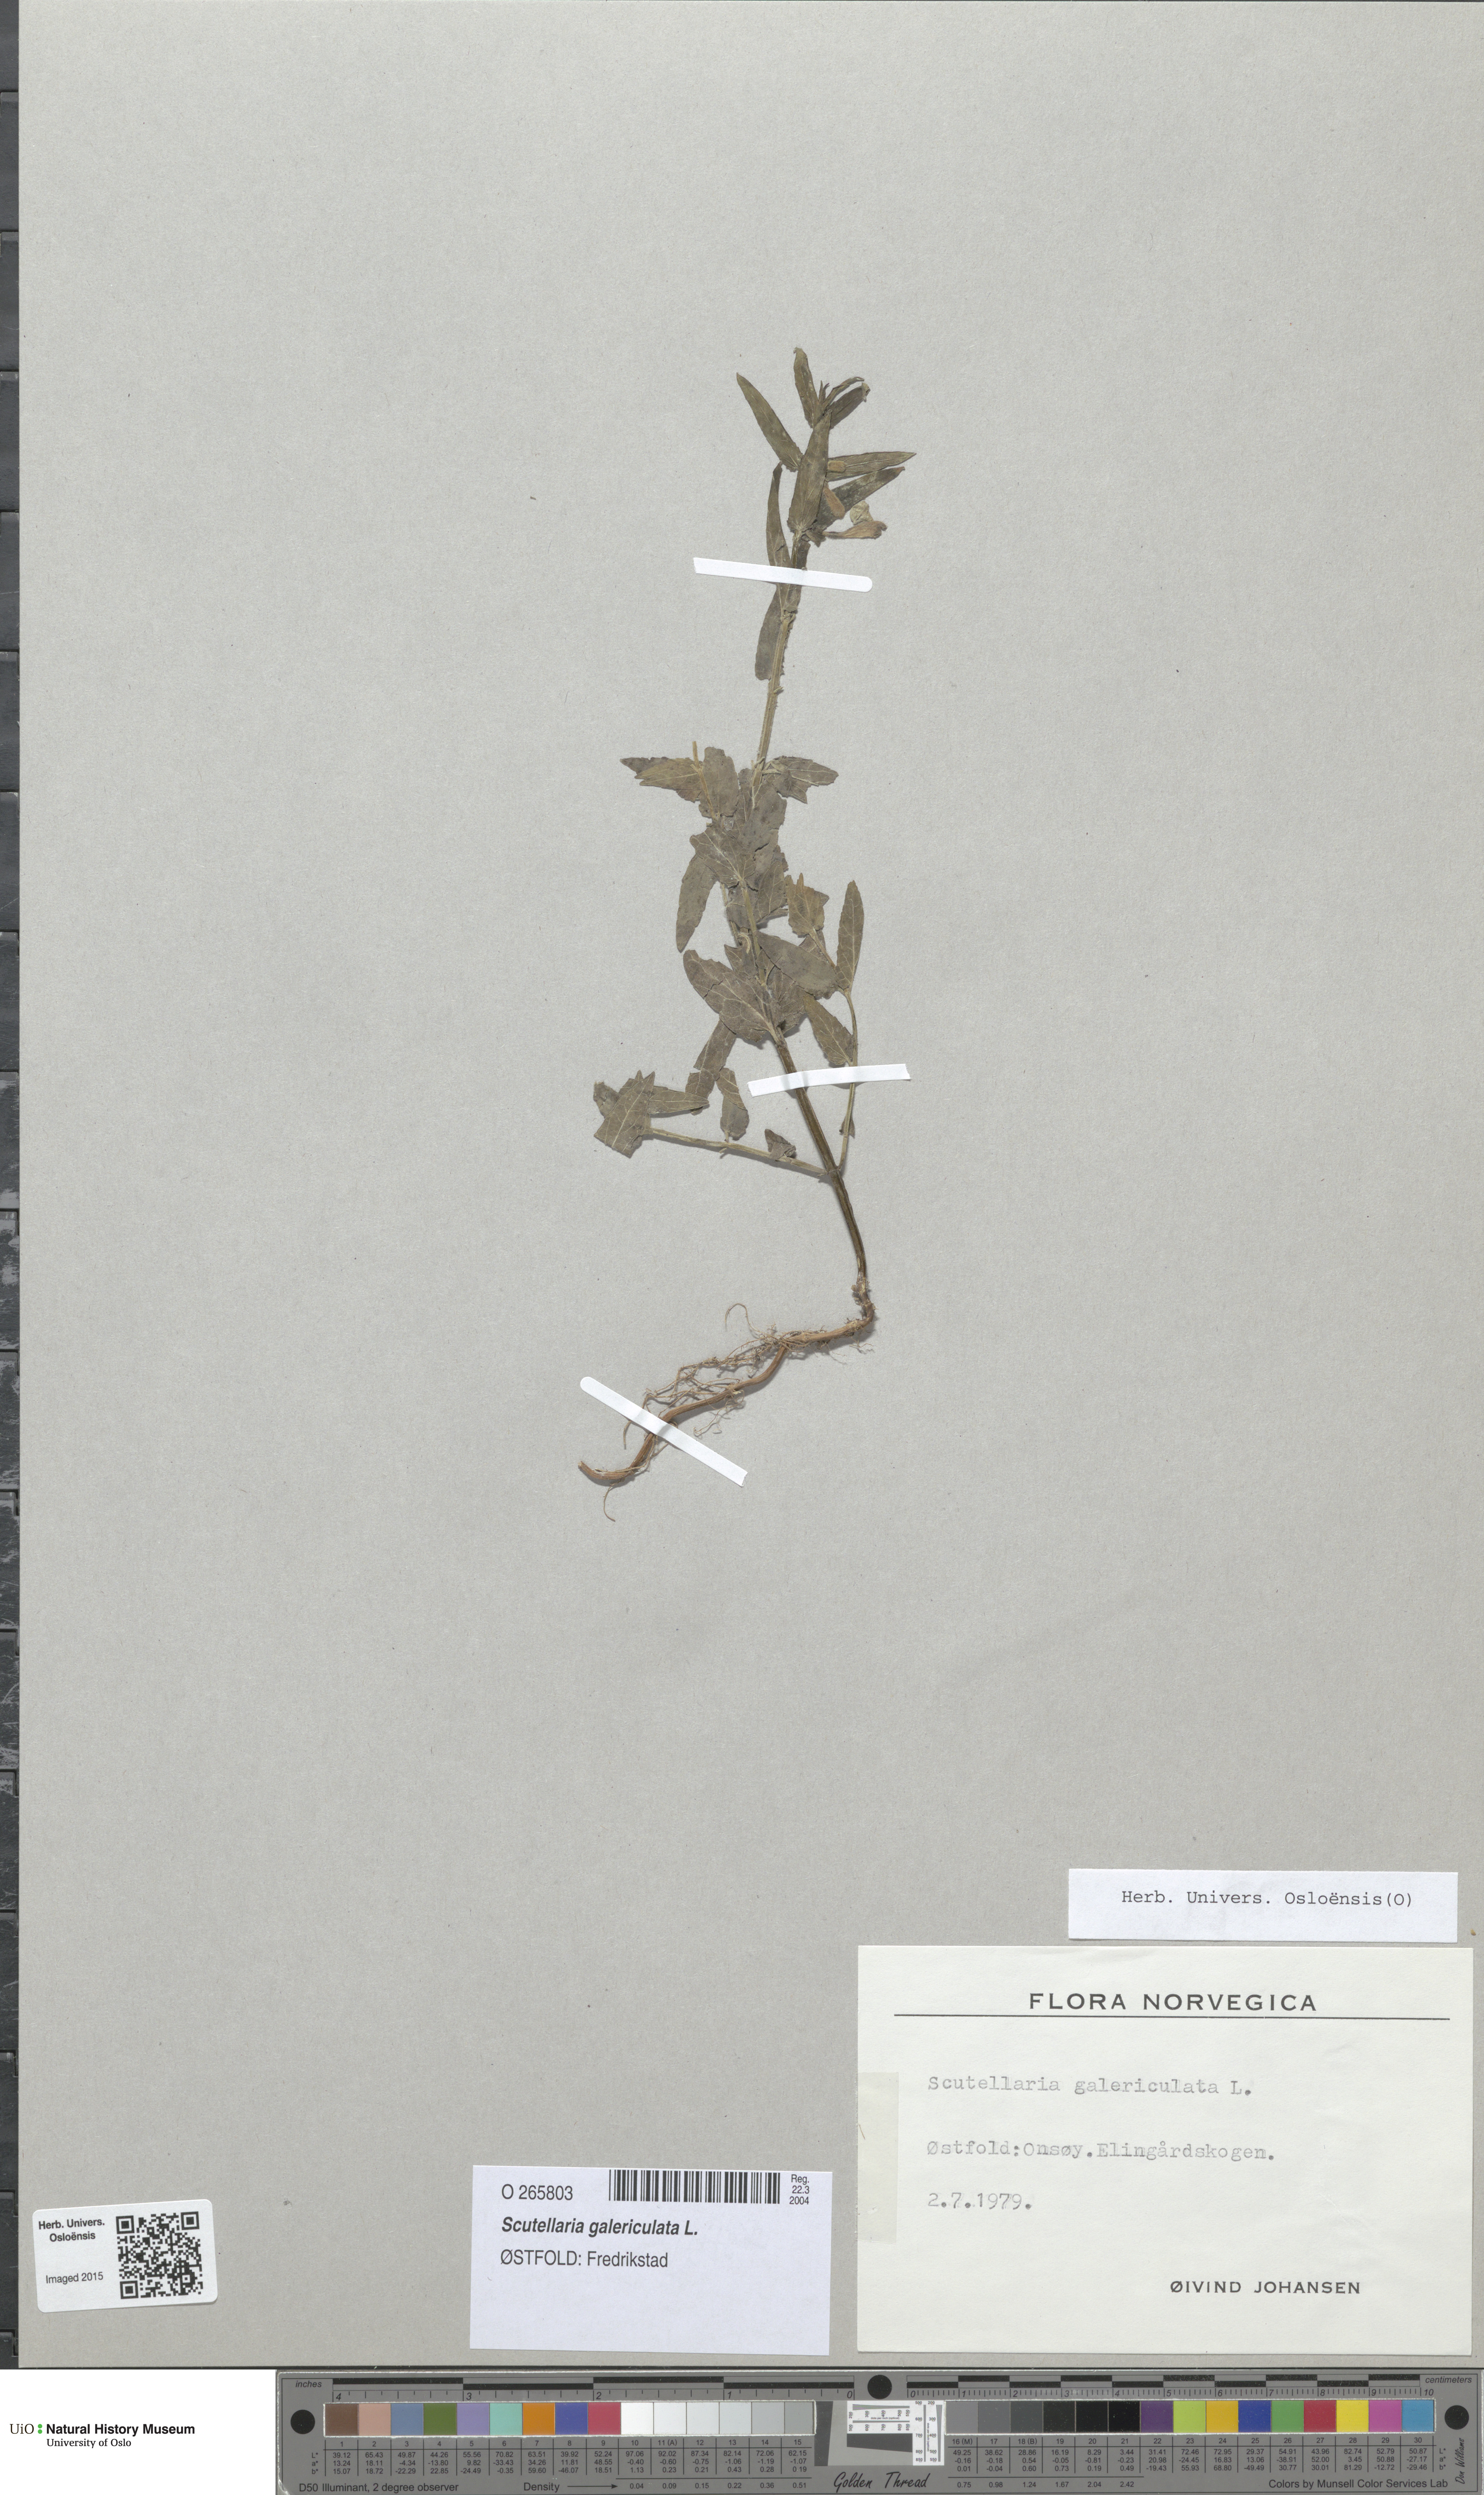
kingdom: Plantae
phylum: Tracheophyta
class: Magnoliopsida
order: Lamiales
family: Lamiaceae
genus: Scutellaria
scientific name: Scutellaria galericulata
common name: Skullcap
